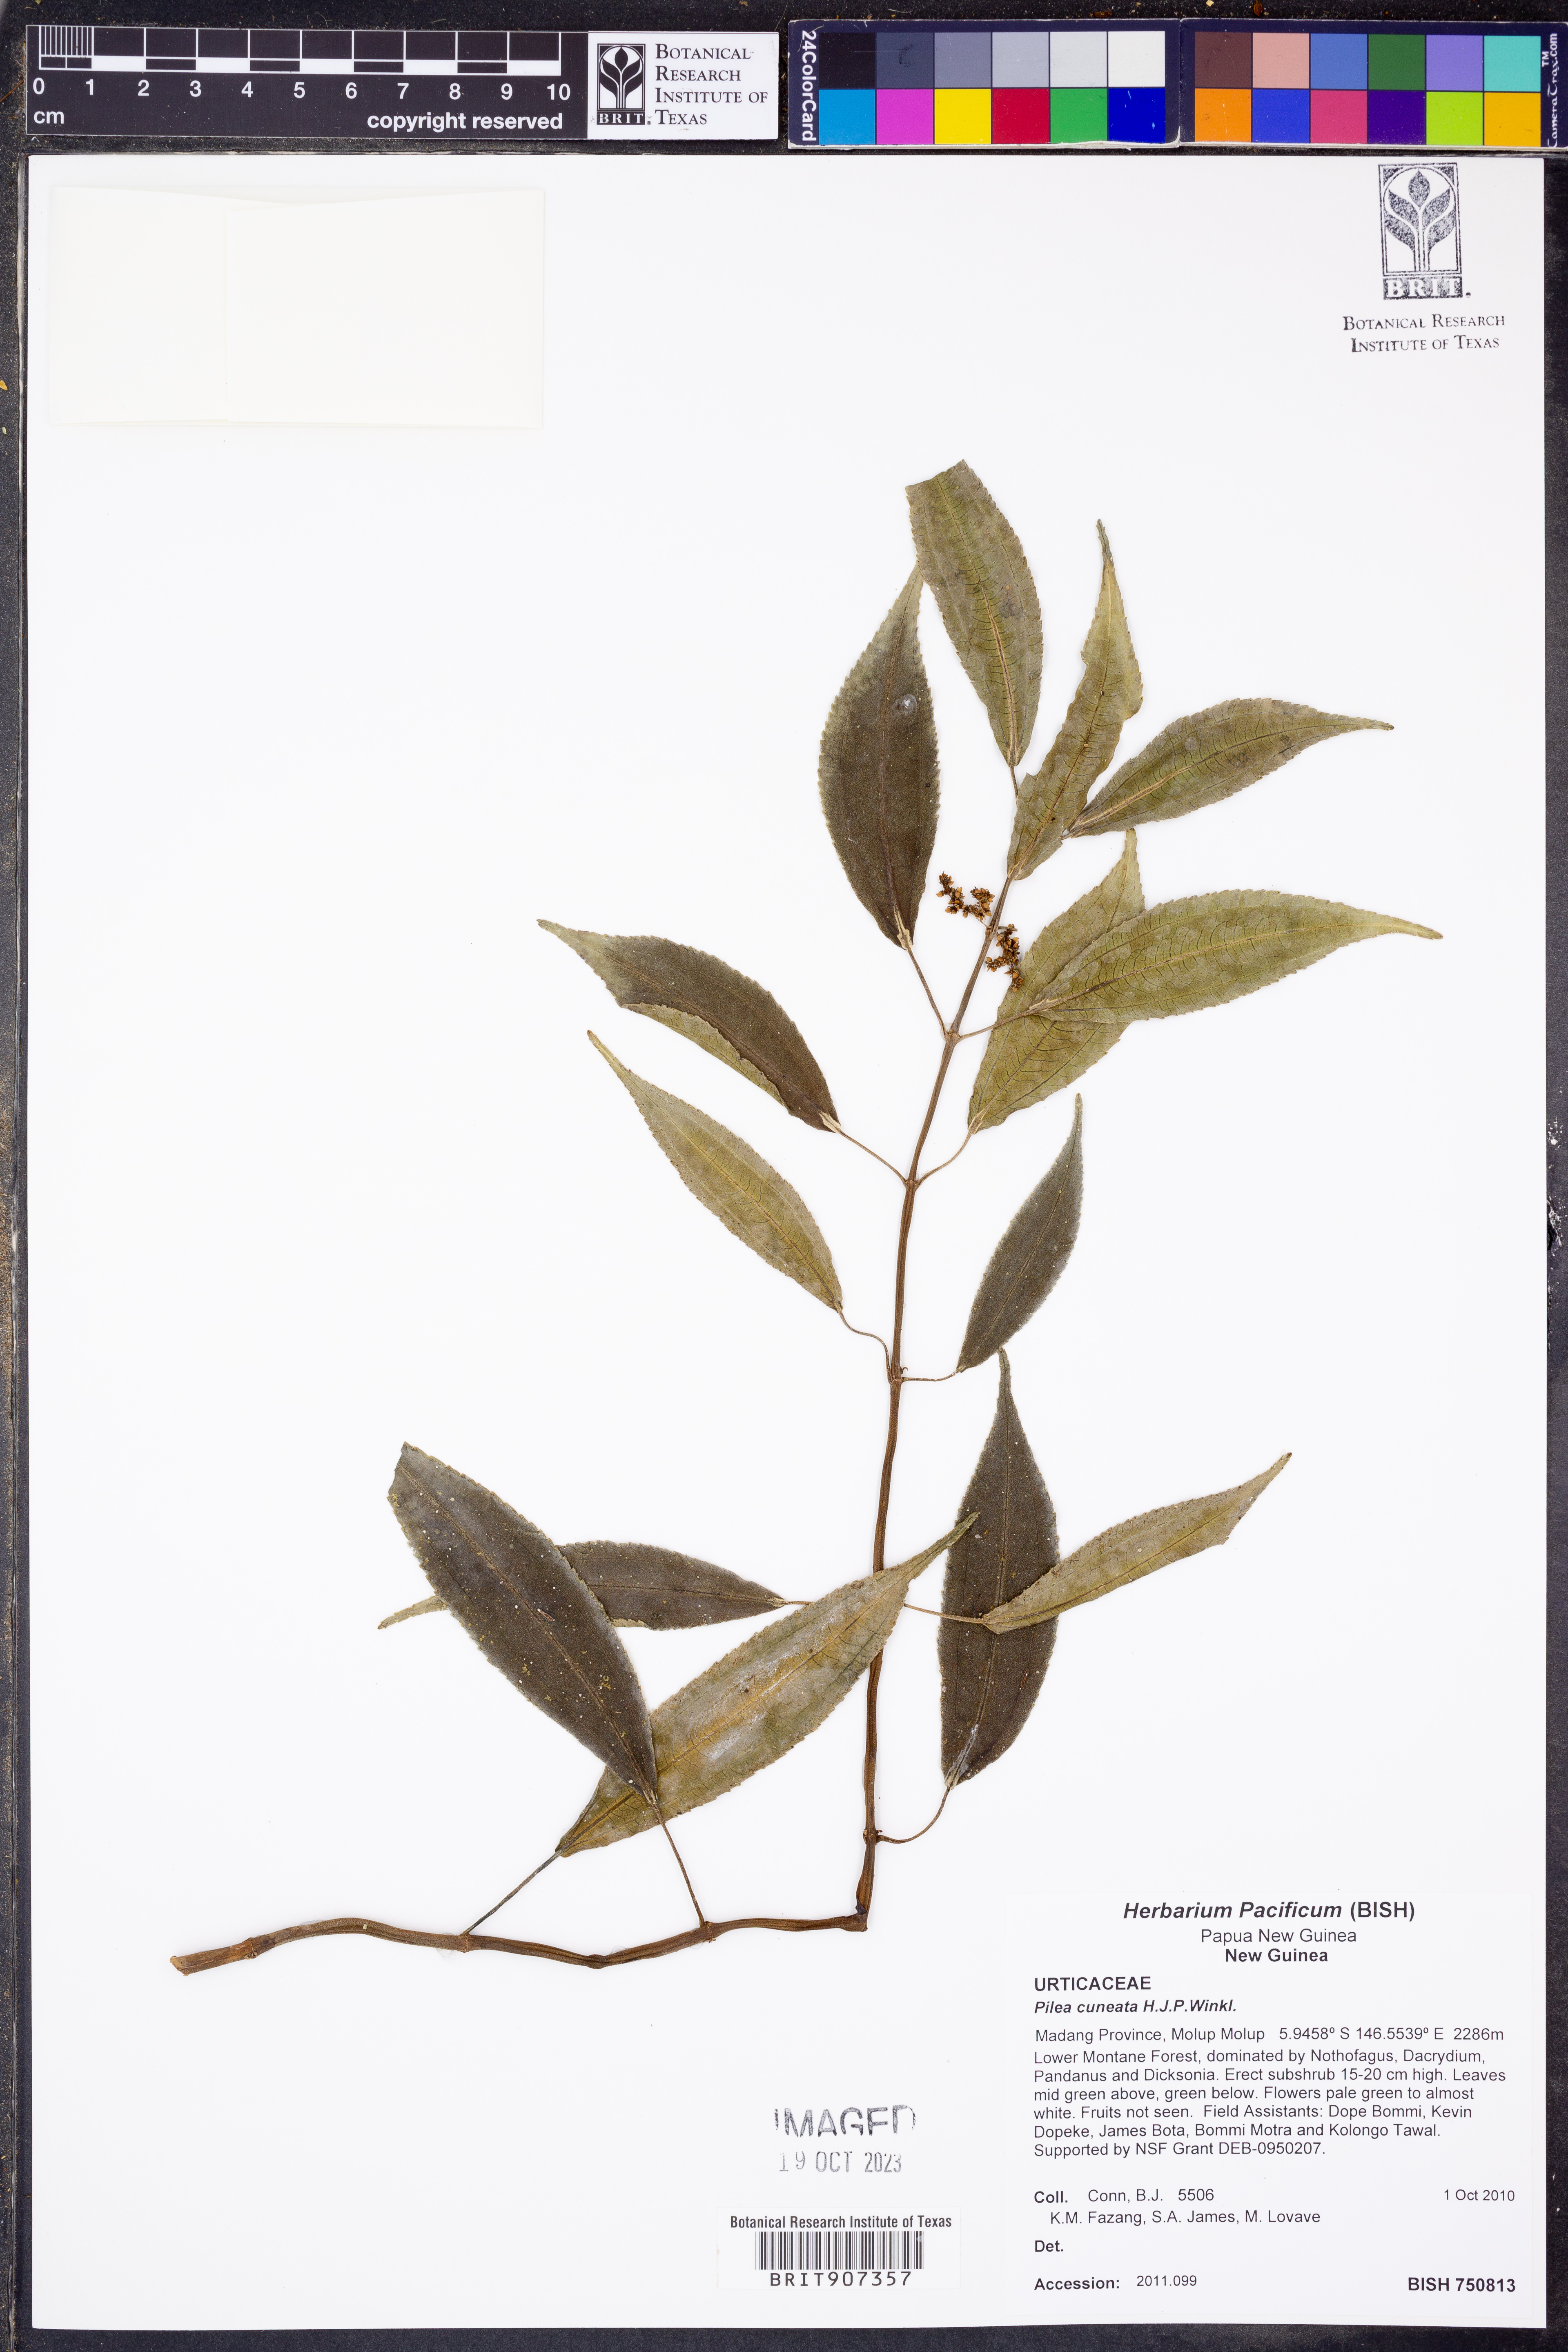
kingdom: Plantae
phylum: Tracheophyta
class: Magnoliopsida
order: Rosales
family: Urticaceae
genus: Pilea
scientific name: Pilea cuneata
